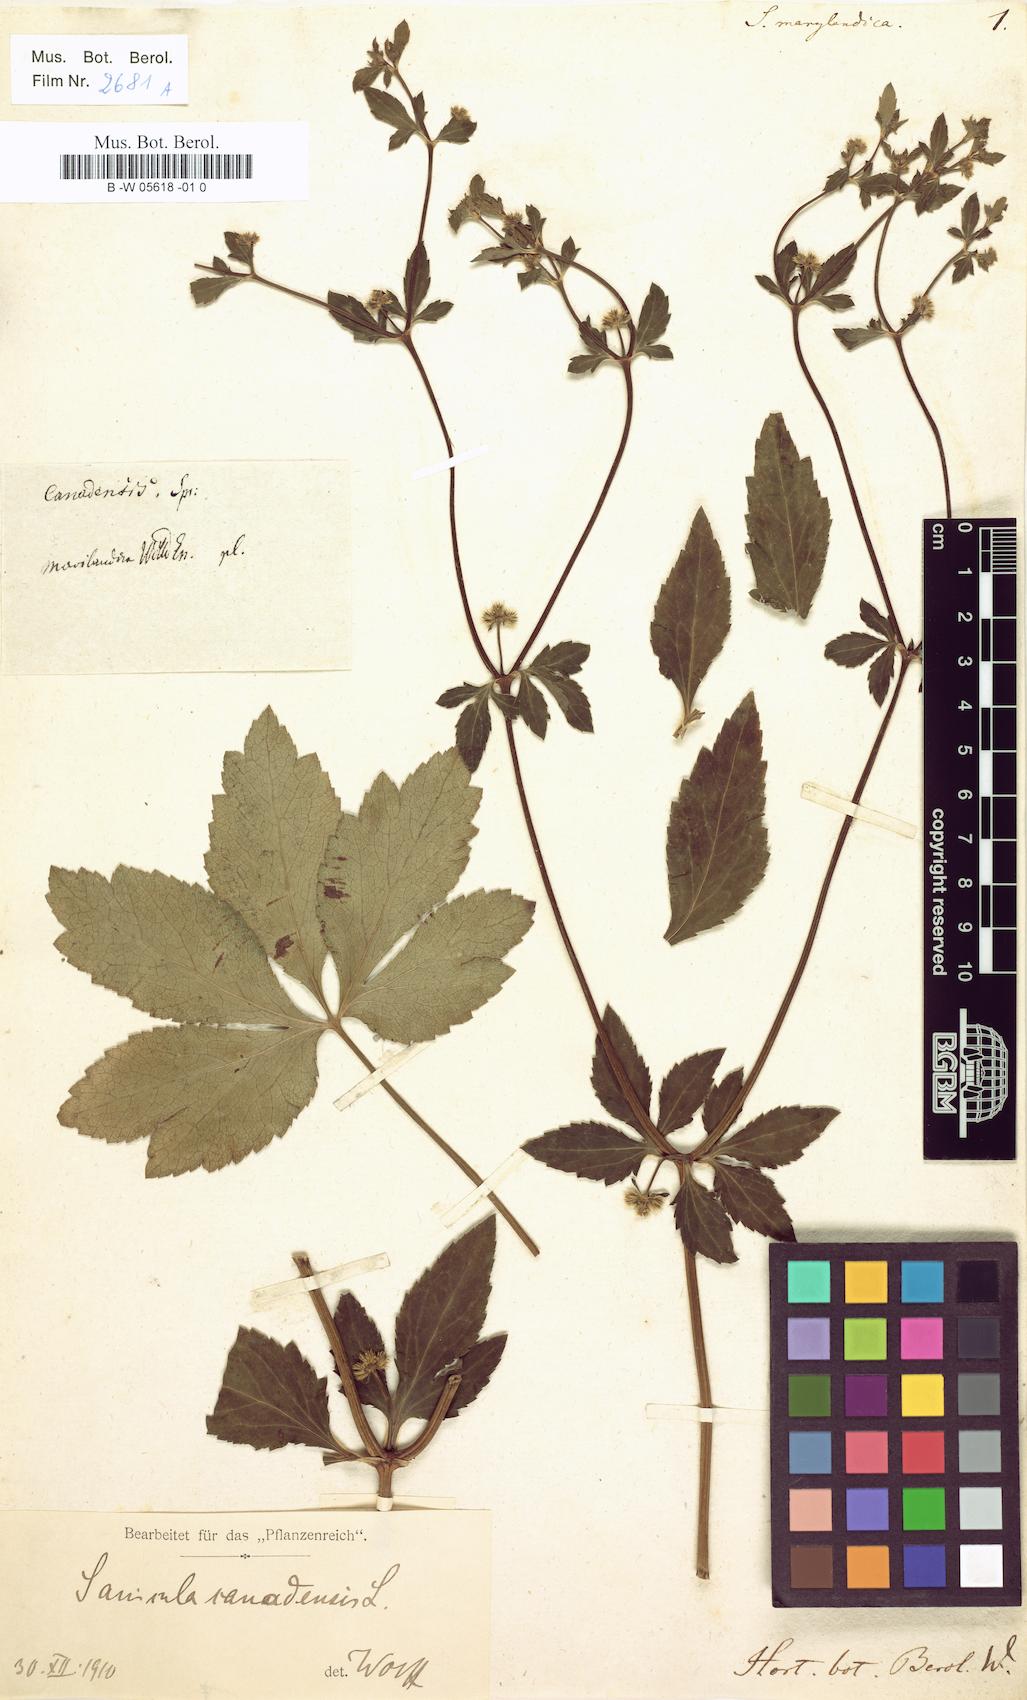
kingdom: Plantae
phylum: Tracheophyta
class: Magnoliopsida
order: Apiales
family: Apiaceae
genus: Sanicula
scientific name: Sanicula marilandica
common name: Black snakeroot
